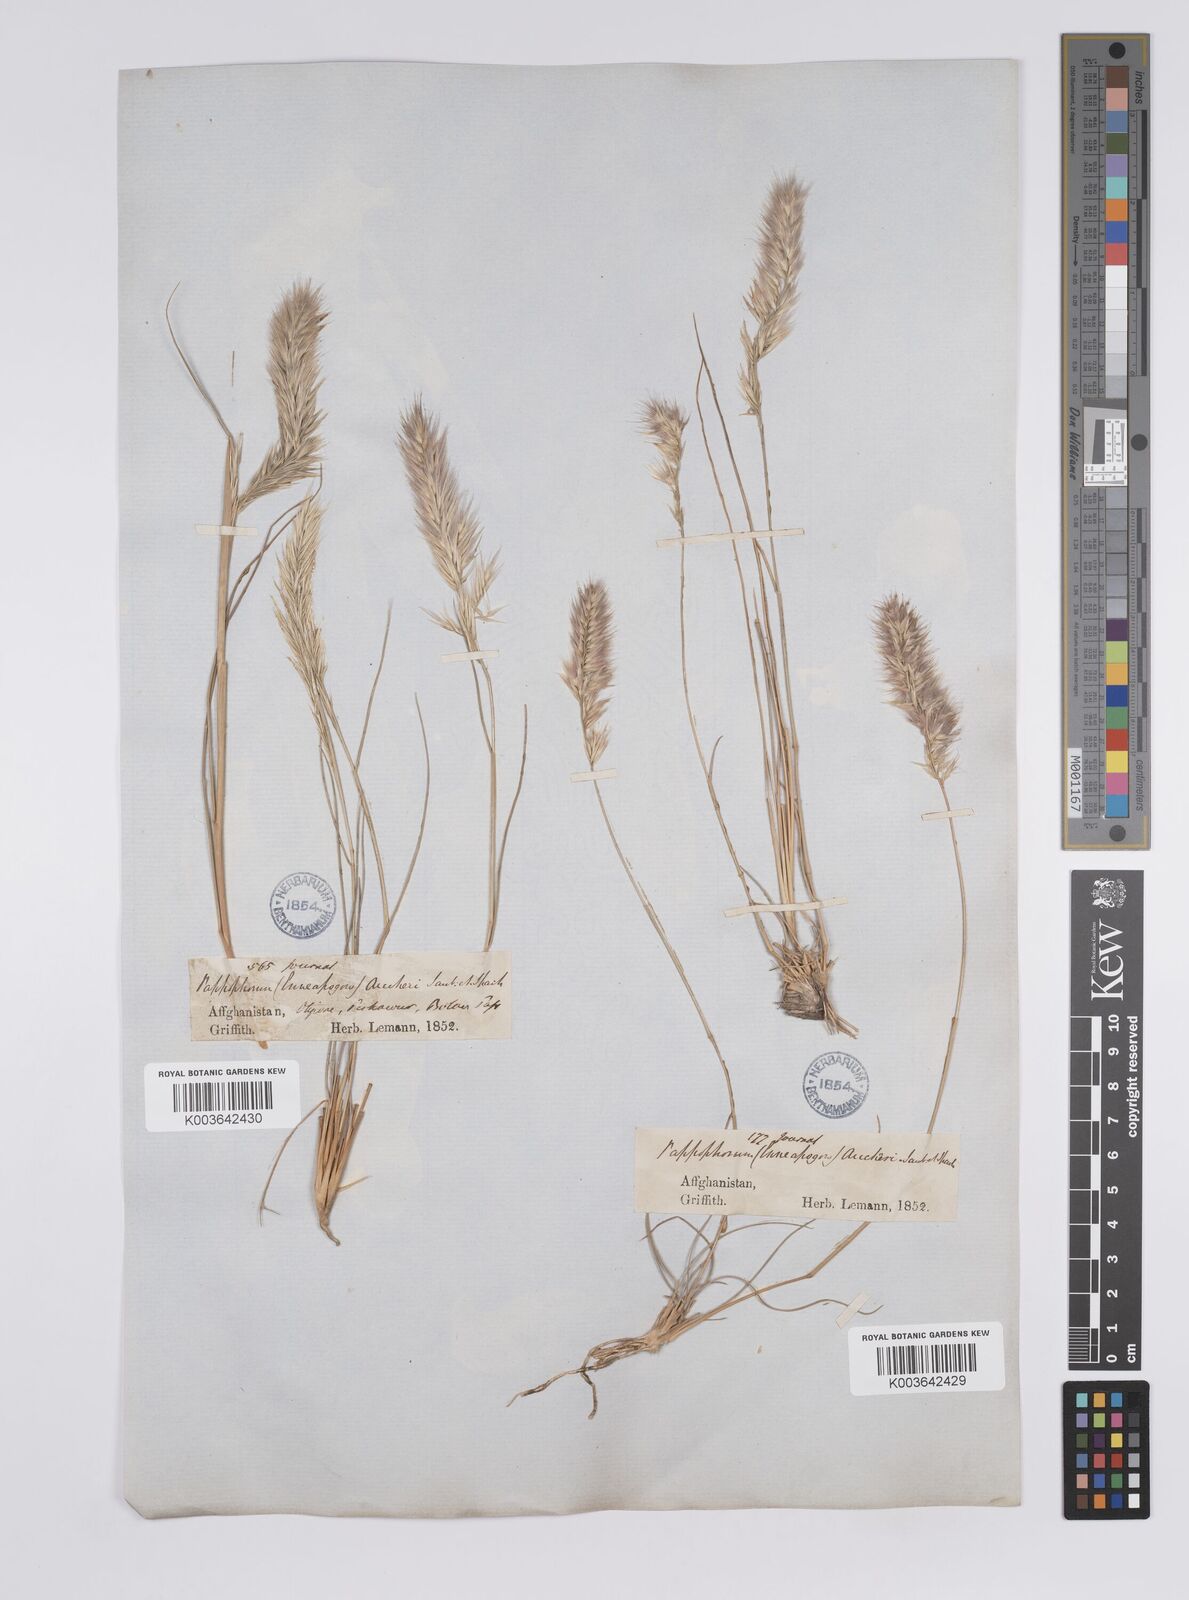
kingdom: Plantae
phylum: Tracheophyta
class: Liliopsida
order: Poales
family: Poaceae
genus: Enneapogon
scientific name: Enneapogon persicus
